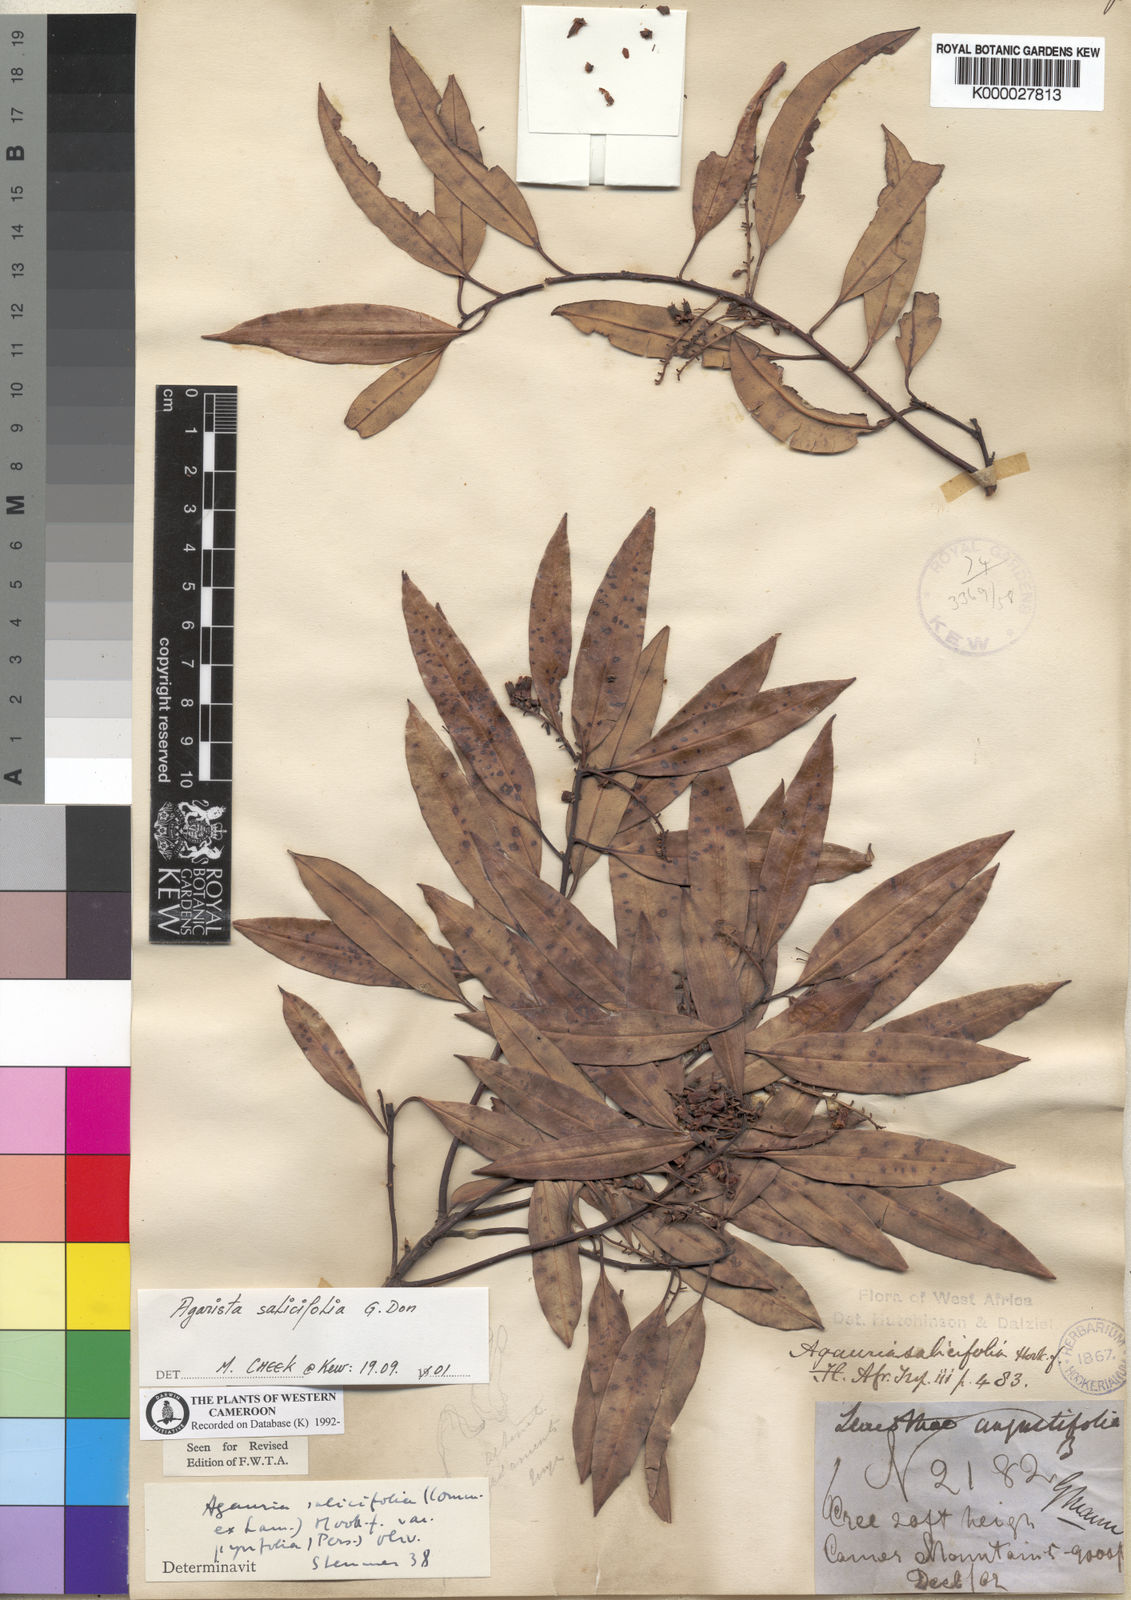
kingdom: Plantae
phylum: Tracheophyta
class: Magnoliopsida
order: Ericales
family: Ericaceae
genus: Agarista
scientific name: Agarista salicifolia
